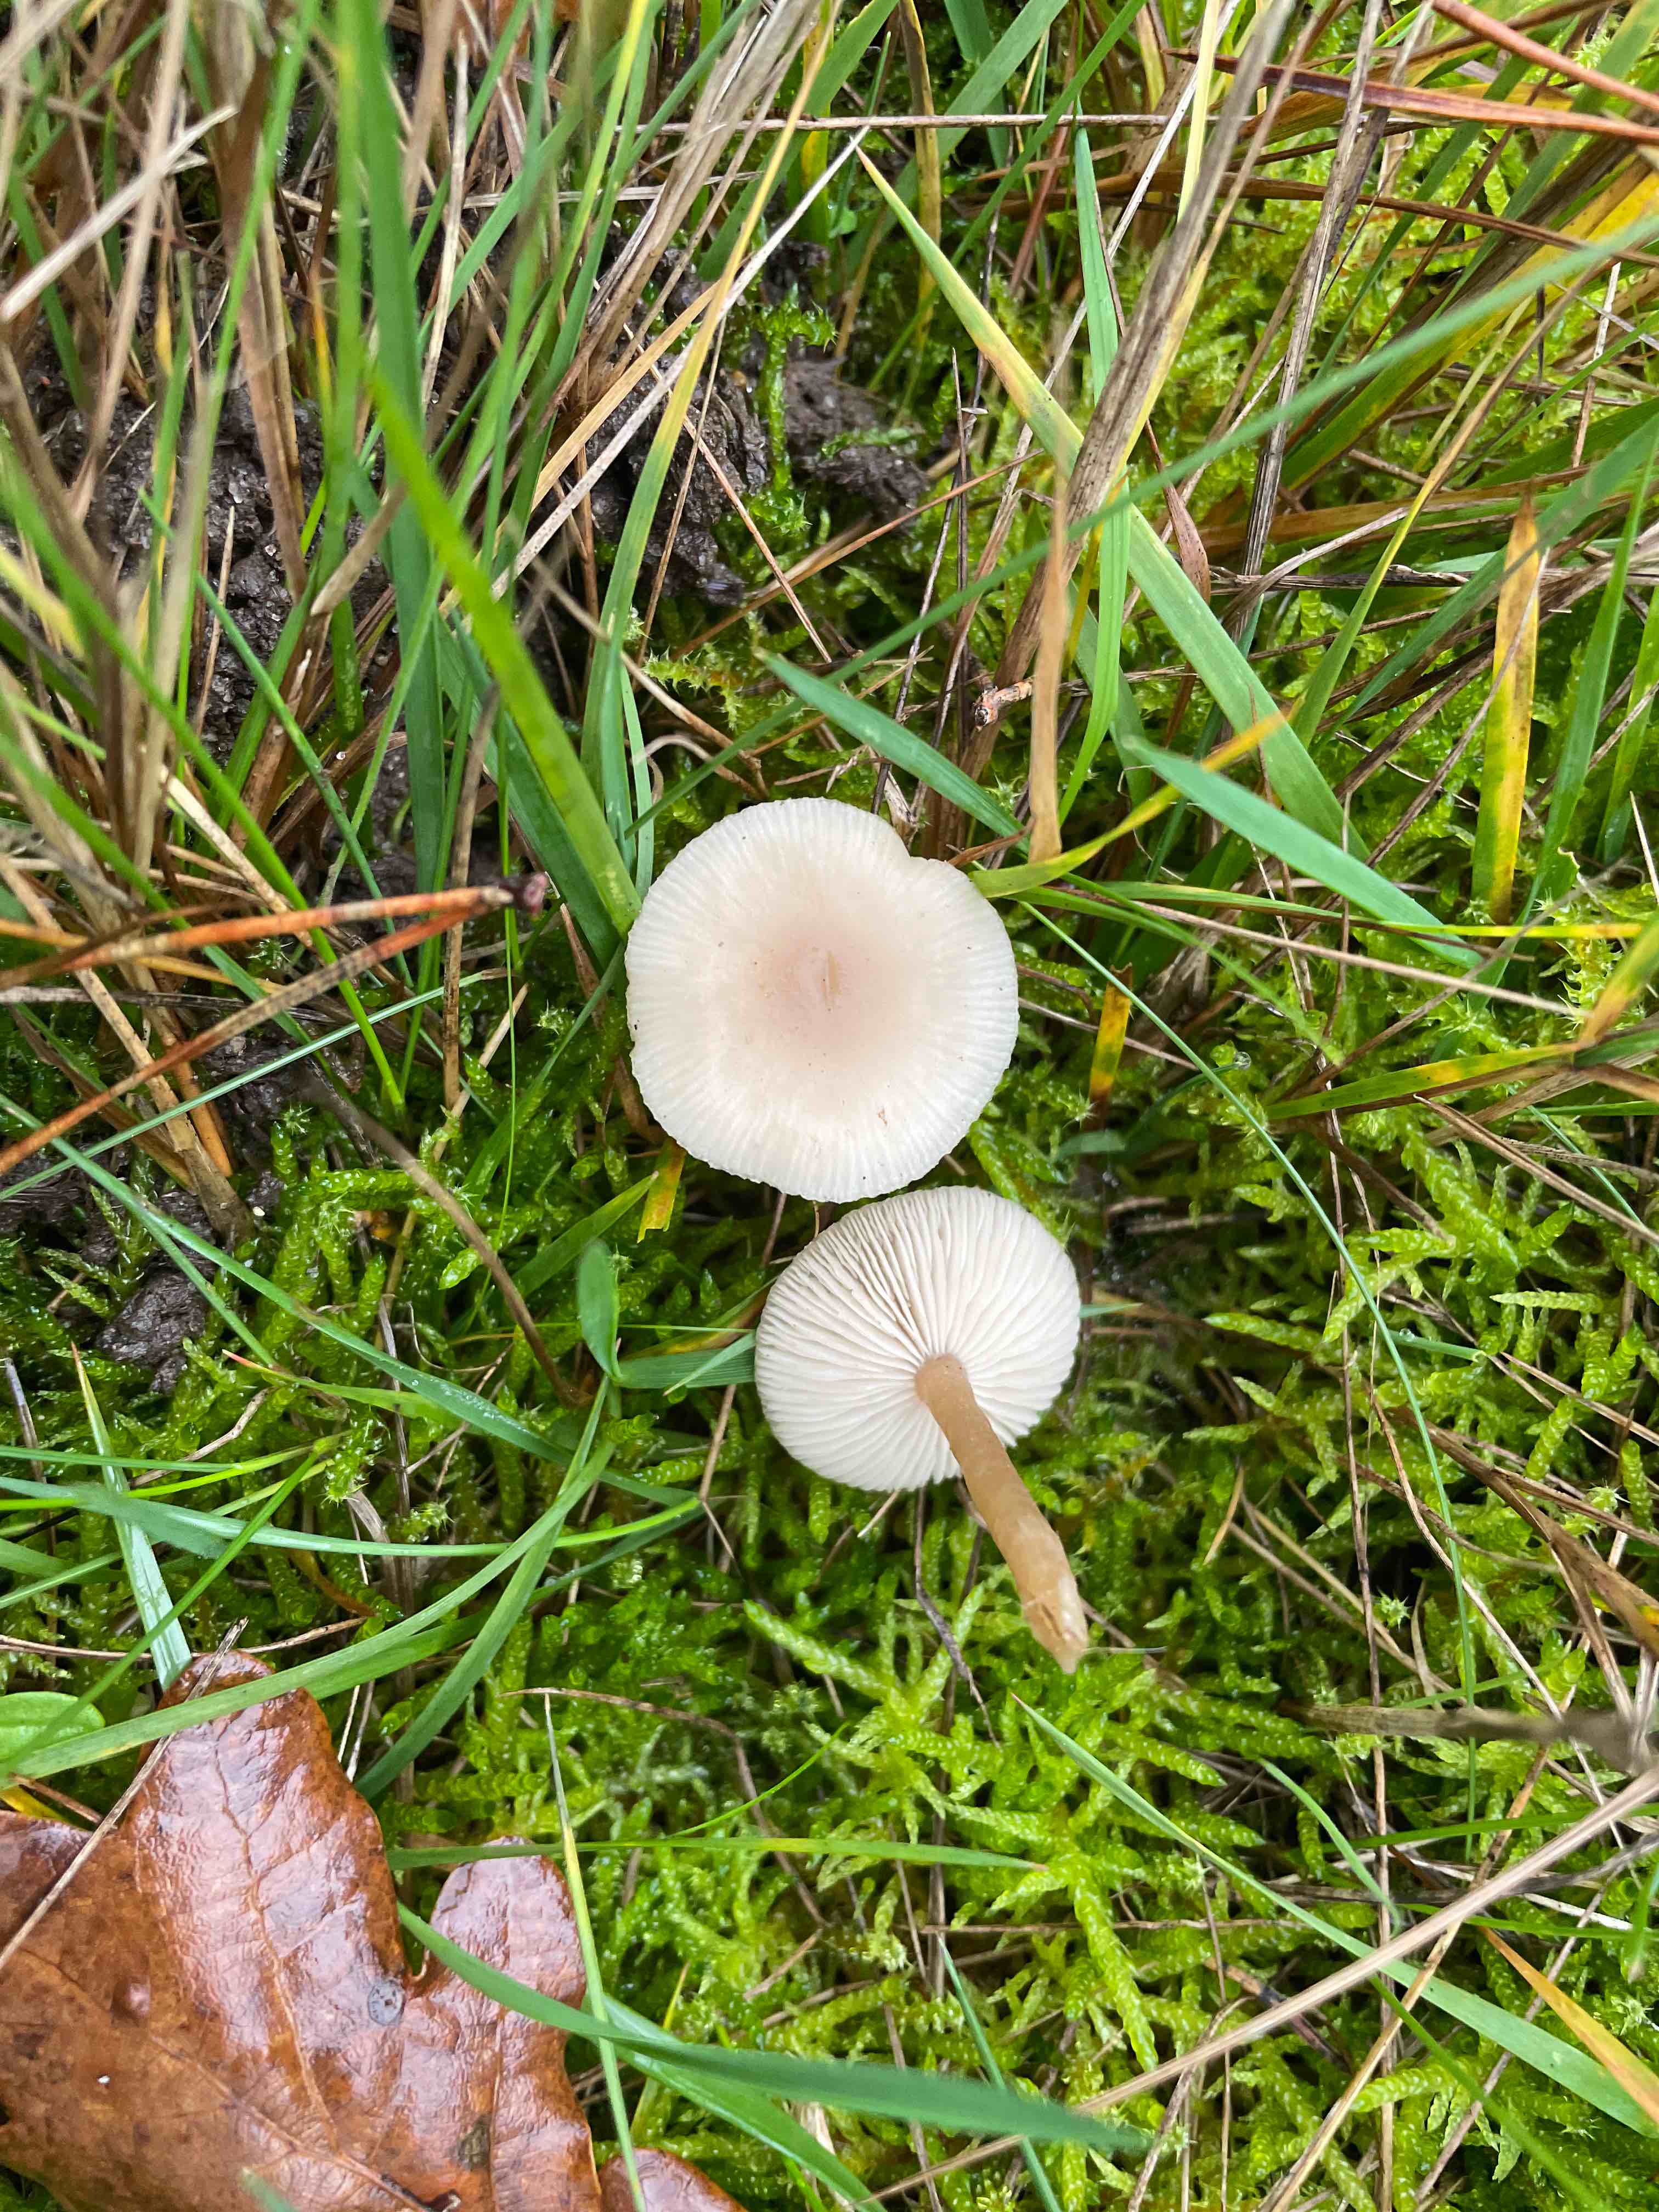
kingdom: Fungi
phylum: Basidiomycota
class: Agaricomycetes
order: Agaricales
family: Tricholomataceae
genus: Clitocybe
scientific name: Clitocybe fragrans
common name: vellugtende tragthat
